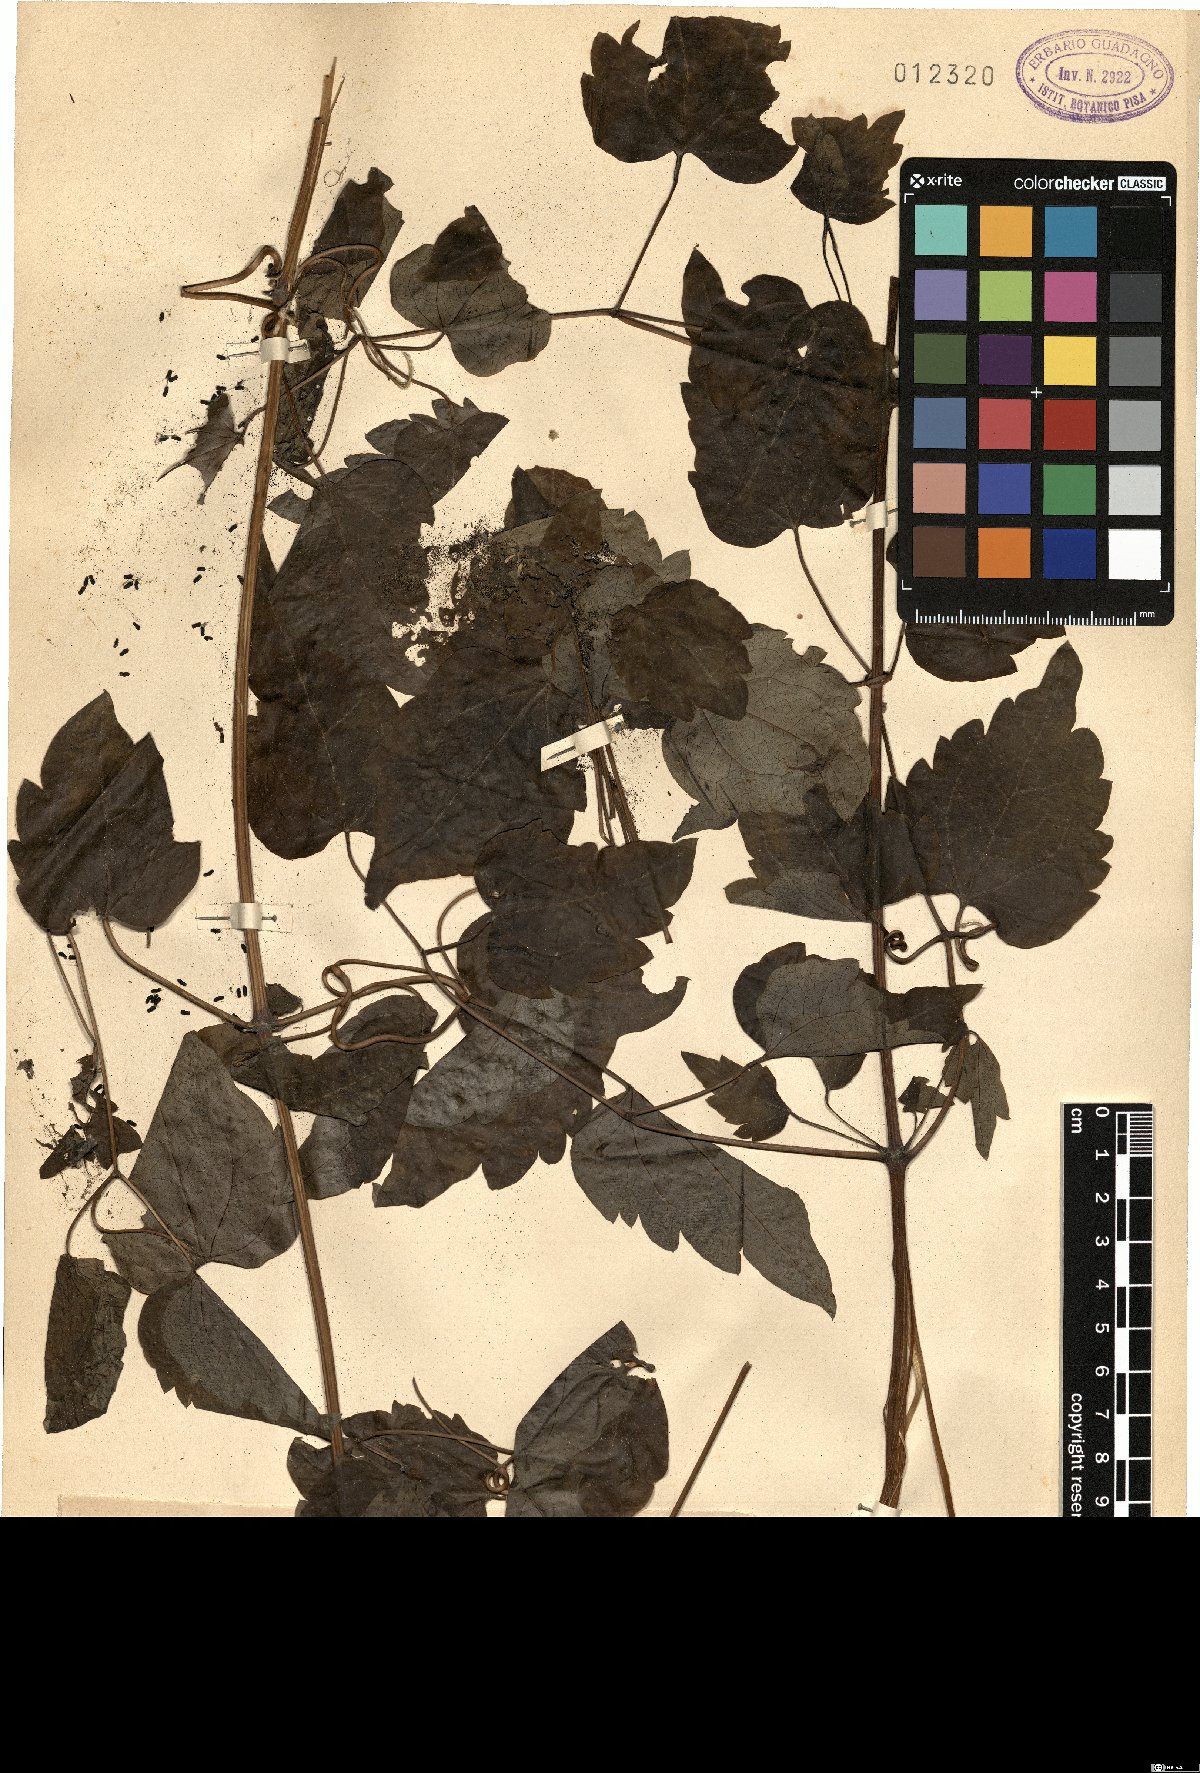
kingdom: Plantae
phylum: Tracheophyta
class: Magnoliopsida
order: Ranunculales
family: Ranunculaceae
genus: Clematis
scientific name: Clematis
